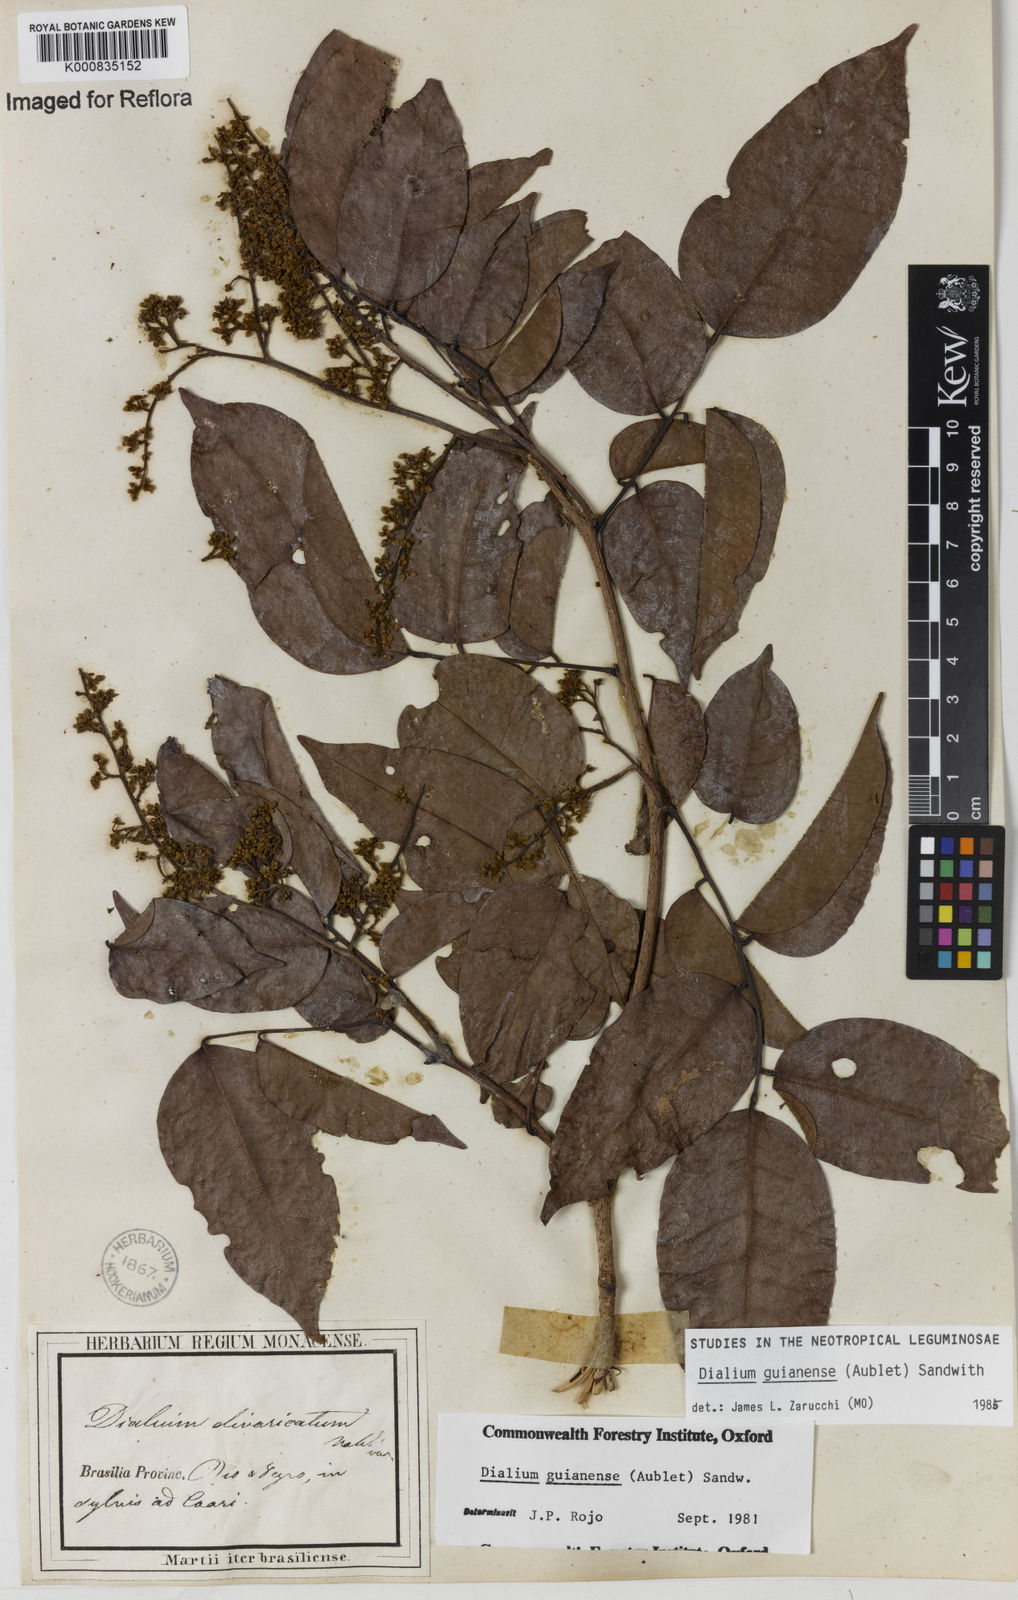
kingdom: Plantae
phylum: Tracheophyta
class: Magnoliopsida
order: Fabales
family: Fabaceae
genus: Dialium
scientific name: Dialium guianense
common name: Ironwood
